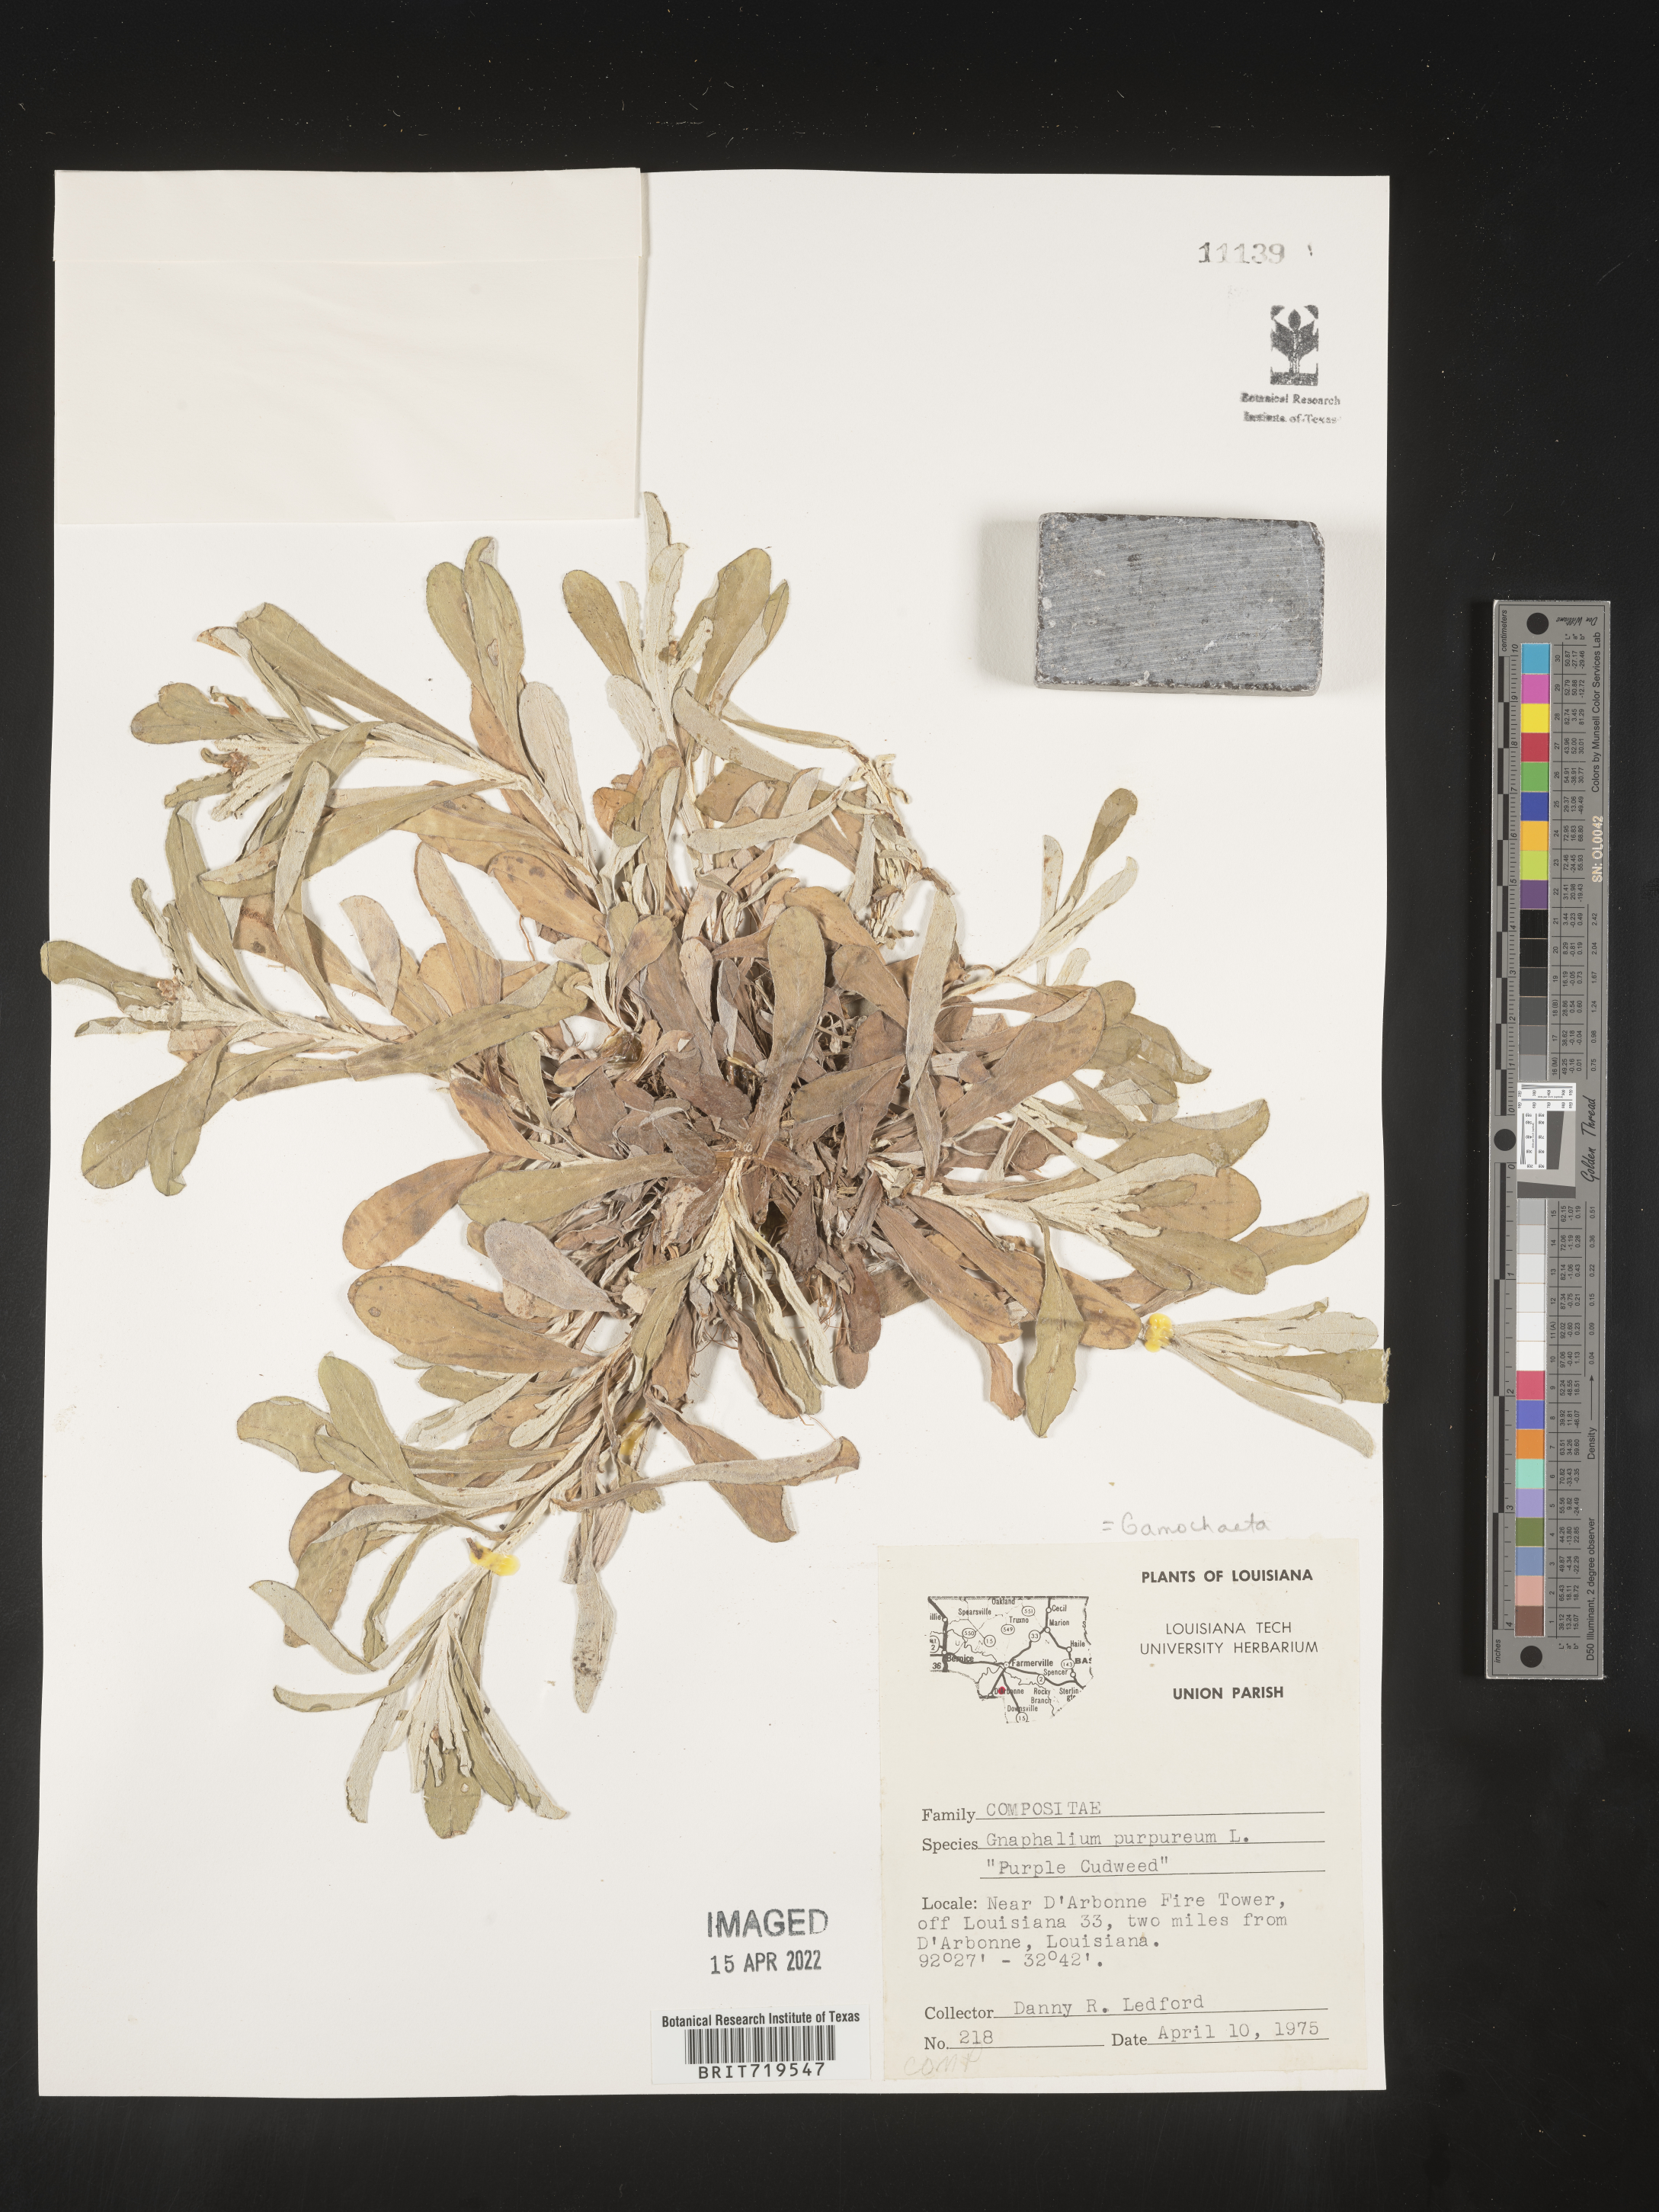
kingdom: Plantae
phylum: Tracheophyta
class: Magnoliopsida
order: Asterales
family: Asteraceae
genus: Gamochaeta
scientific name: Gamochaeta argyrinea
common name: Silvery cudweed
